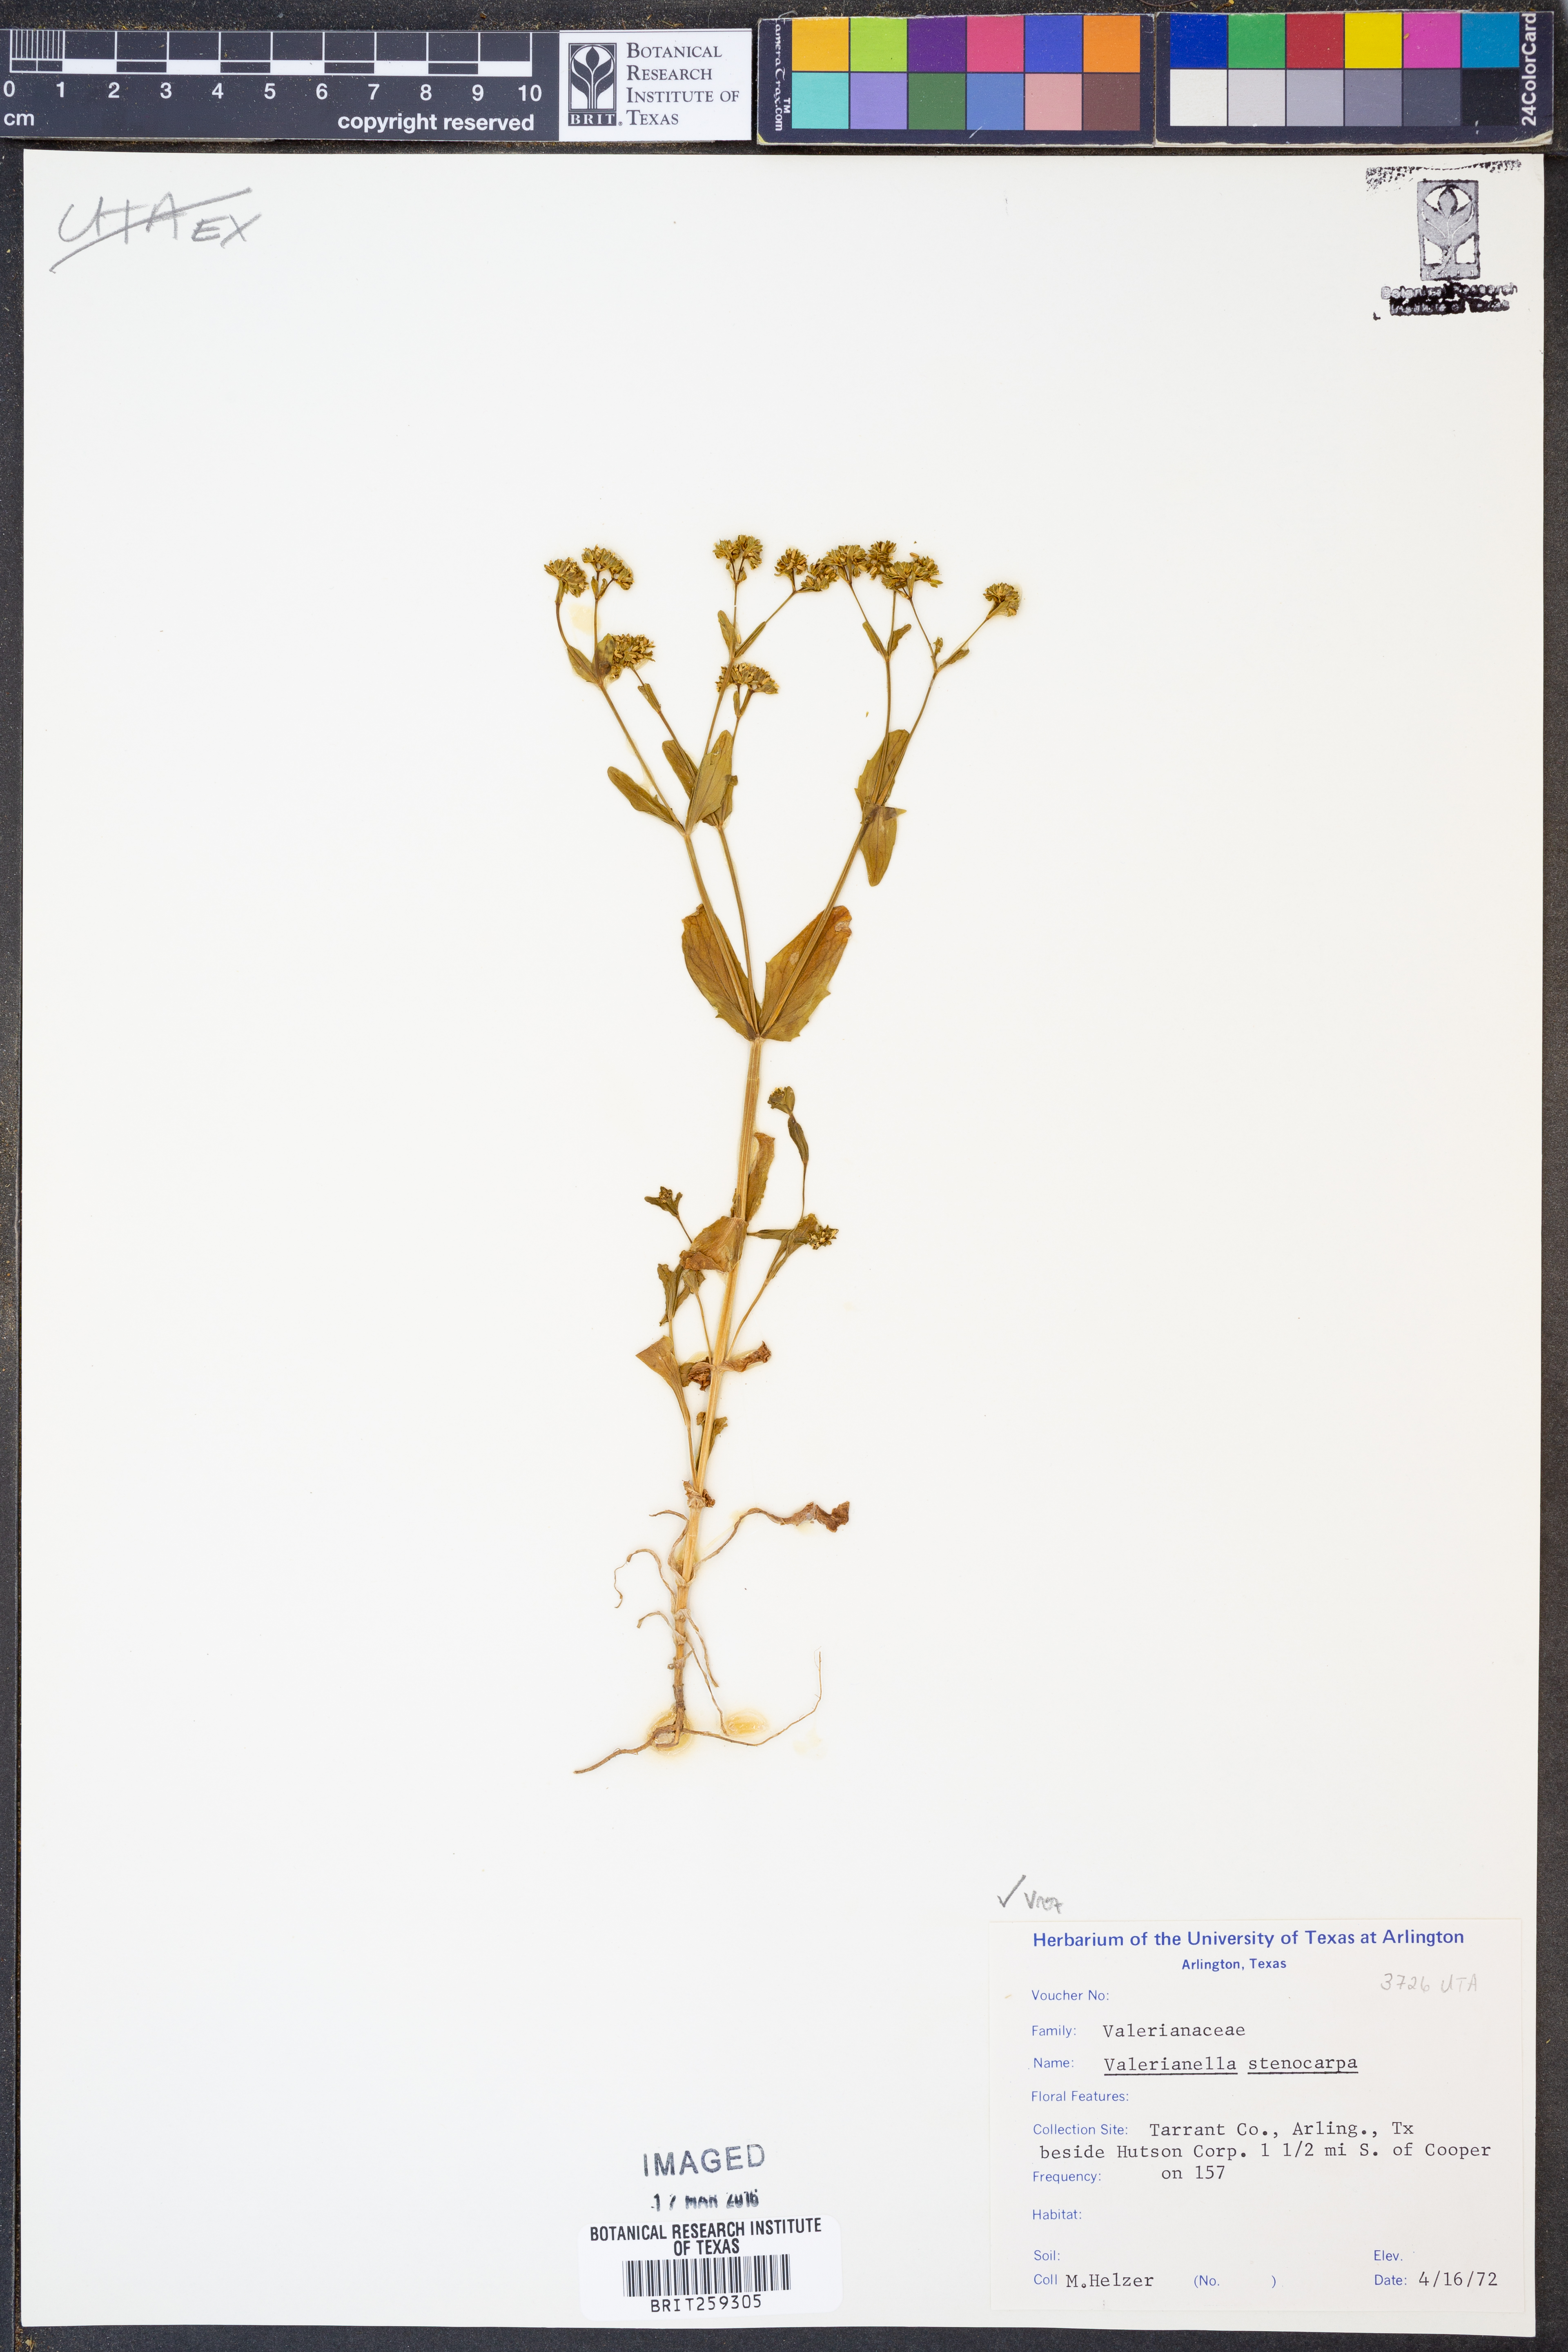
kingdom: Plantae
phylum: Tracheophyta
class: Magnoliopsida
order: Dipsacales
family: Caprifoliaceae
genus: Valerianella
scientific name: Valerianella stenocarpa
